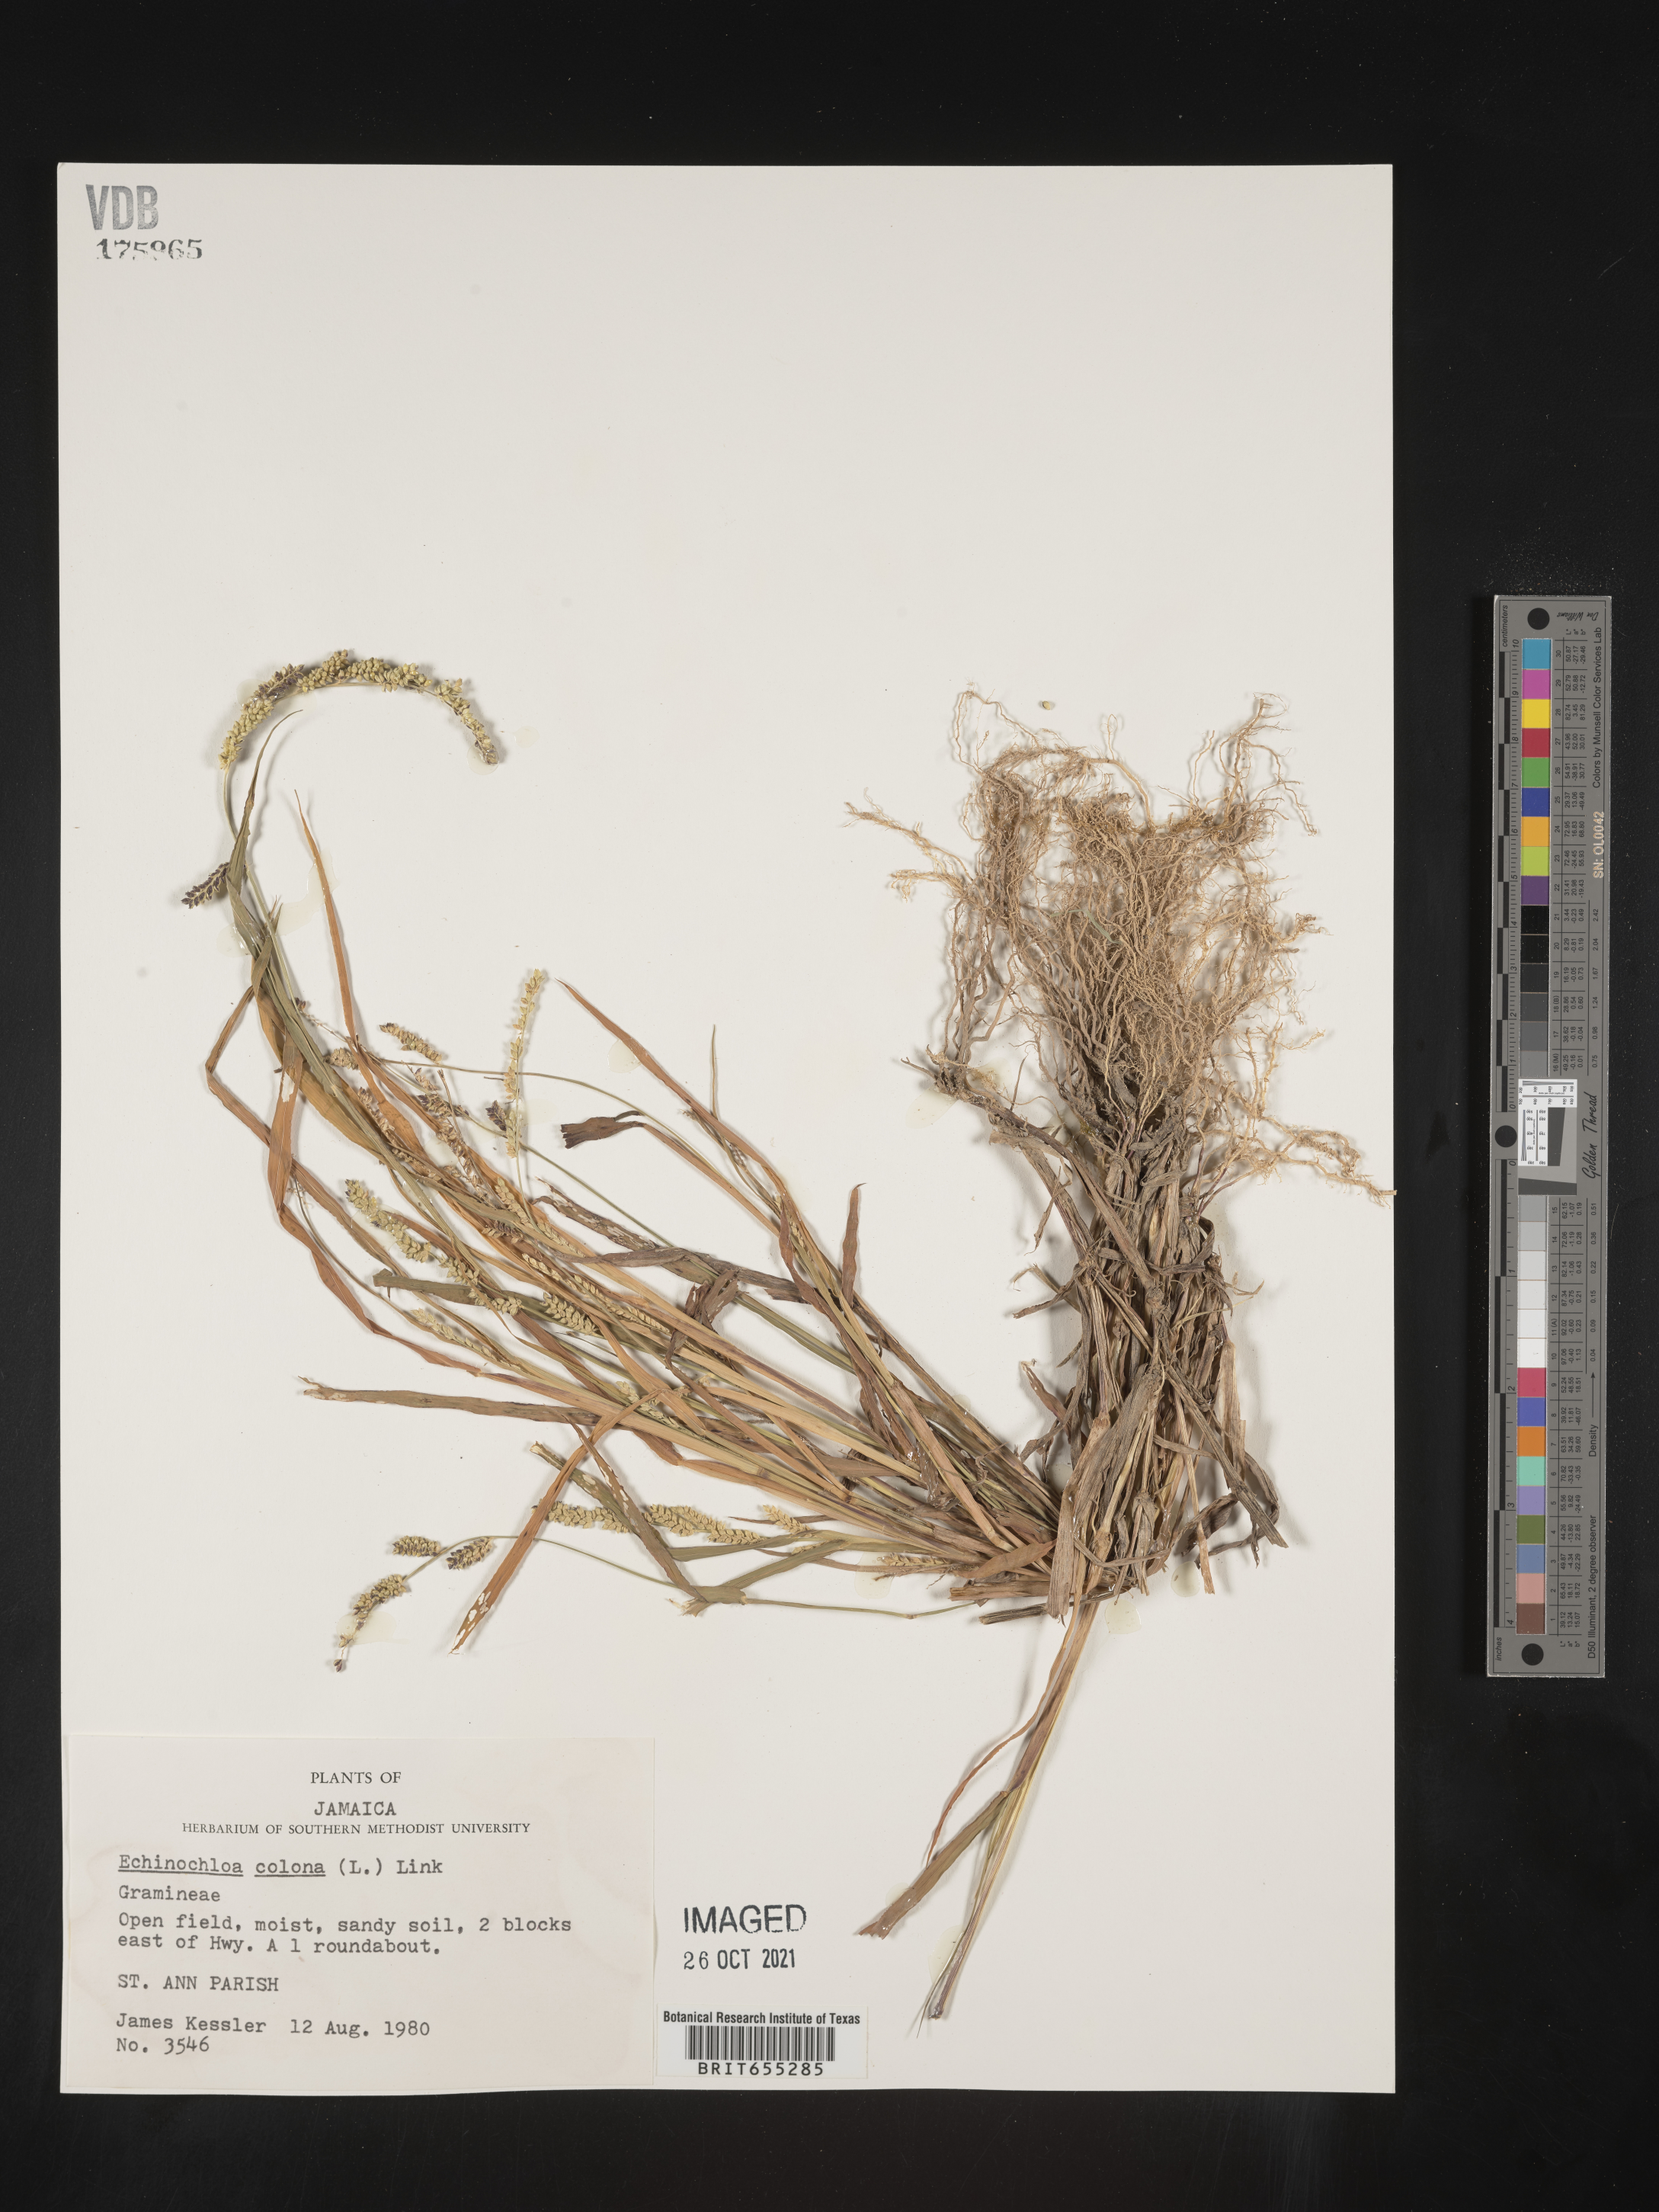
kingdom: Plantae
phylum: Tracheophyta
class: Liliopsida
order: Poales
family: Poaceae
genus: Echinochloa
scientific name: Echinochloa
